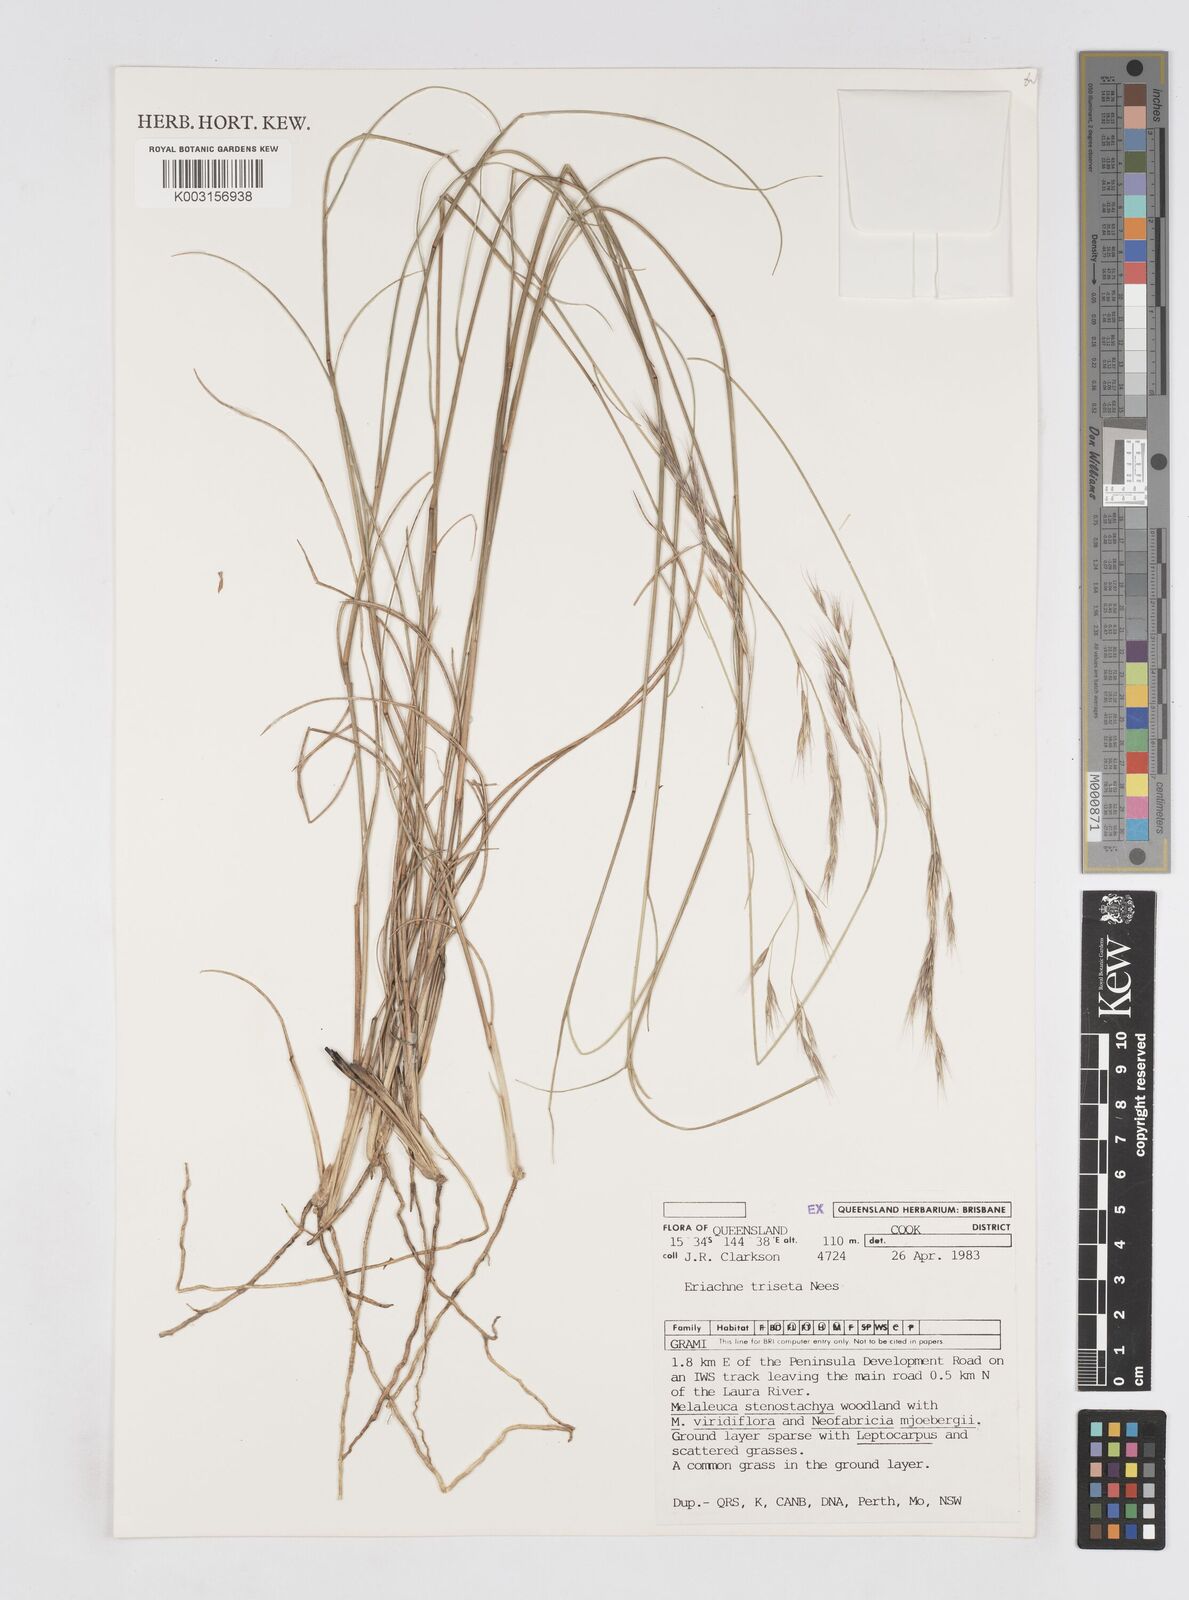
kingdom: Plantae
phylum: Tracheophyta
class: Liliopsida
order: Poales
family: Poaceae
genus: Eriachne
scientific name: Eriachne triseta
